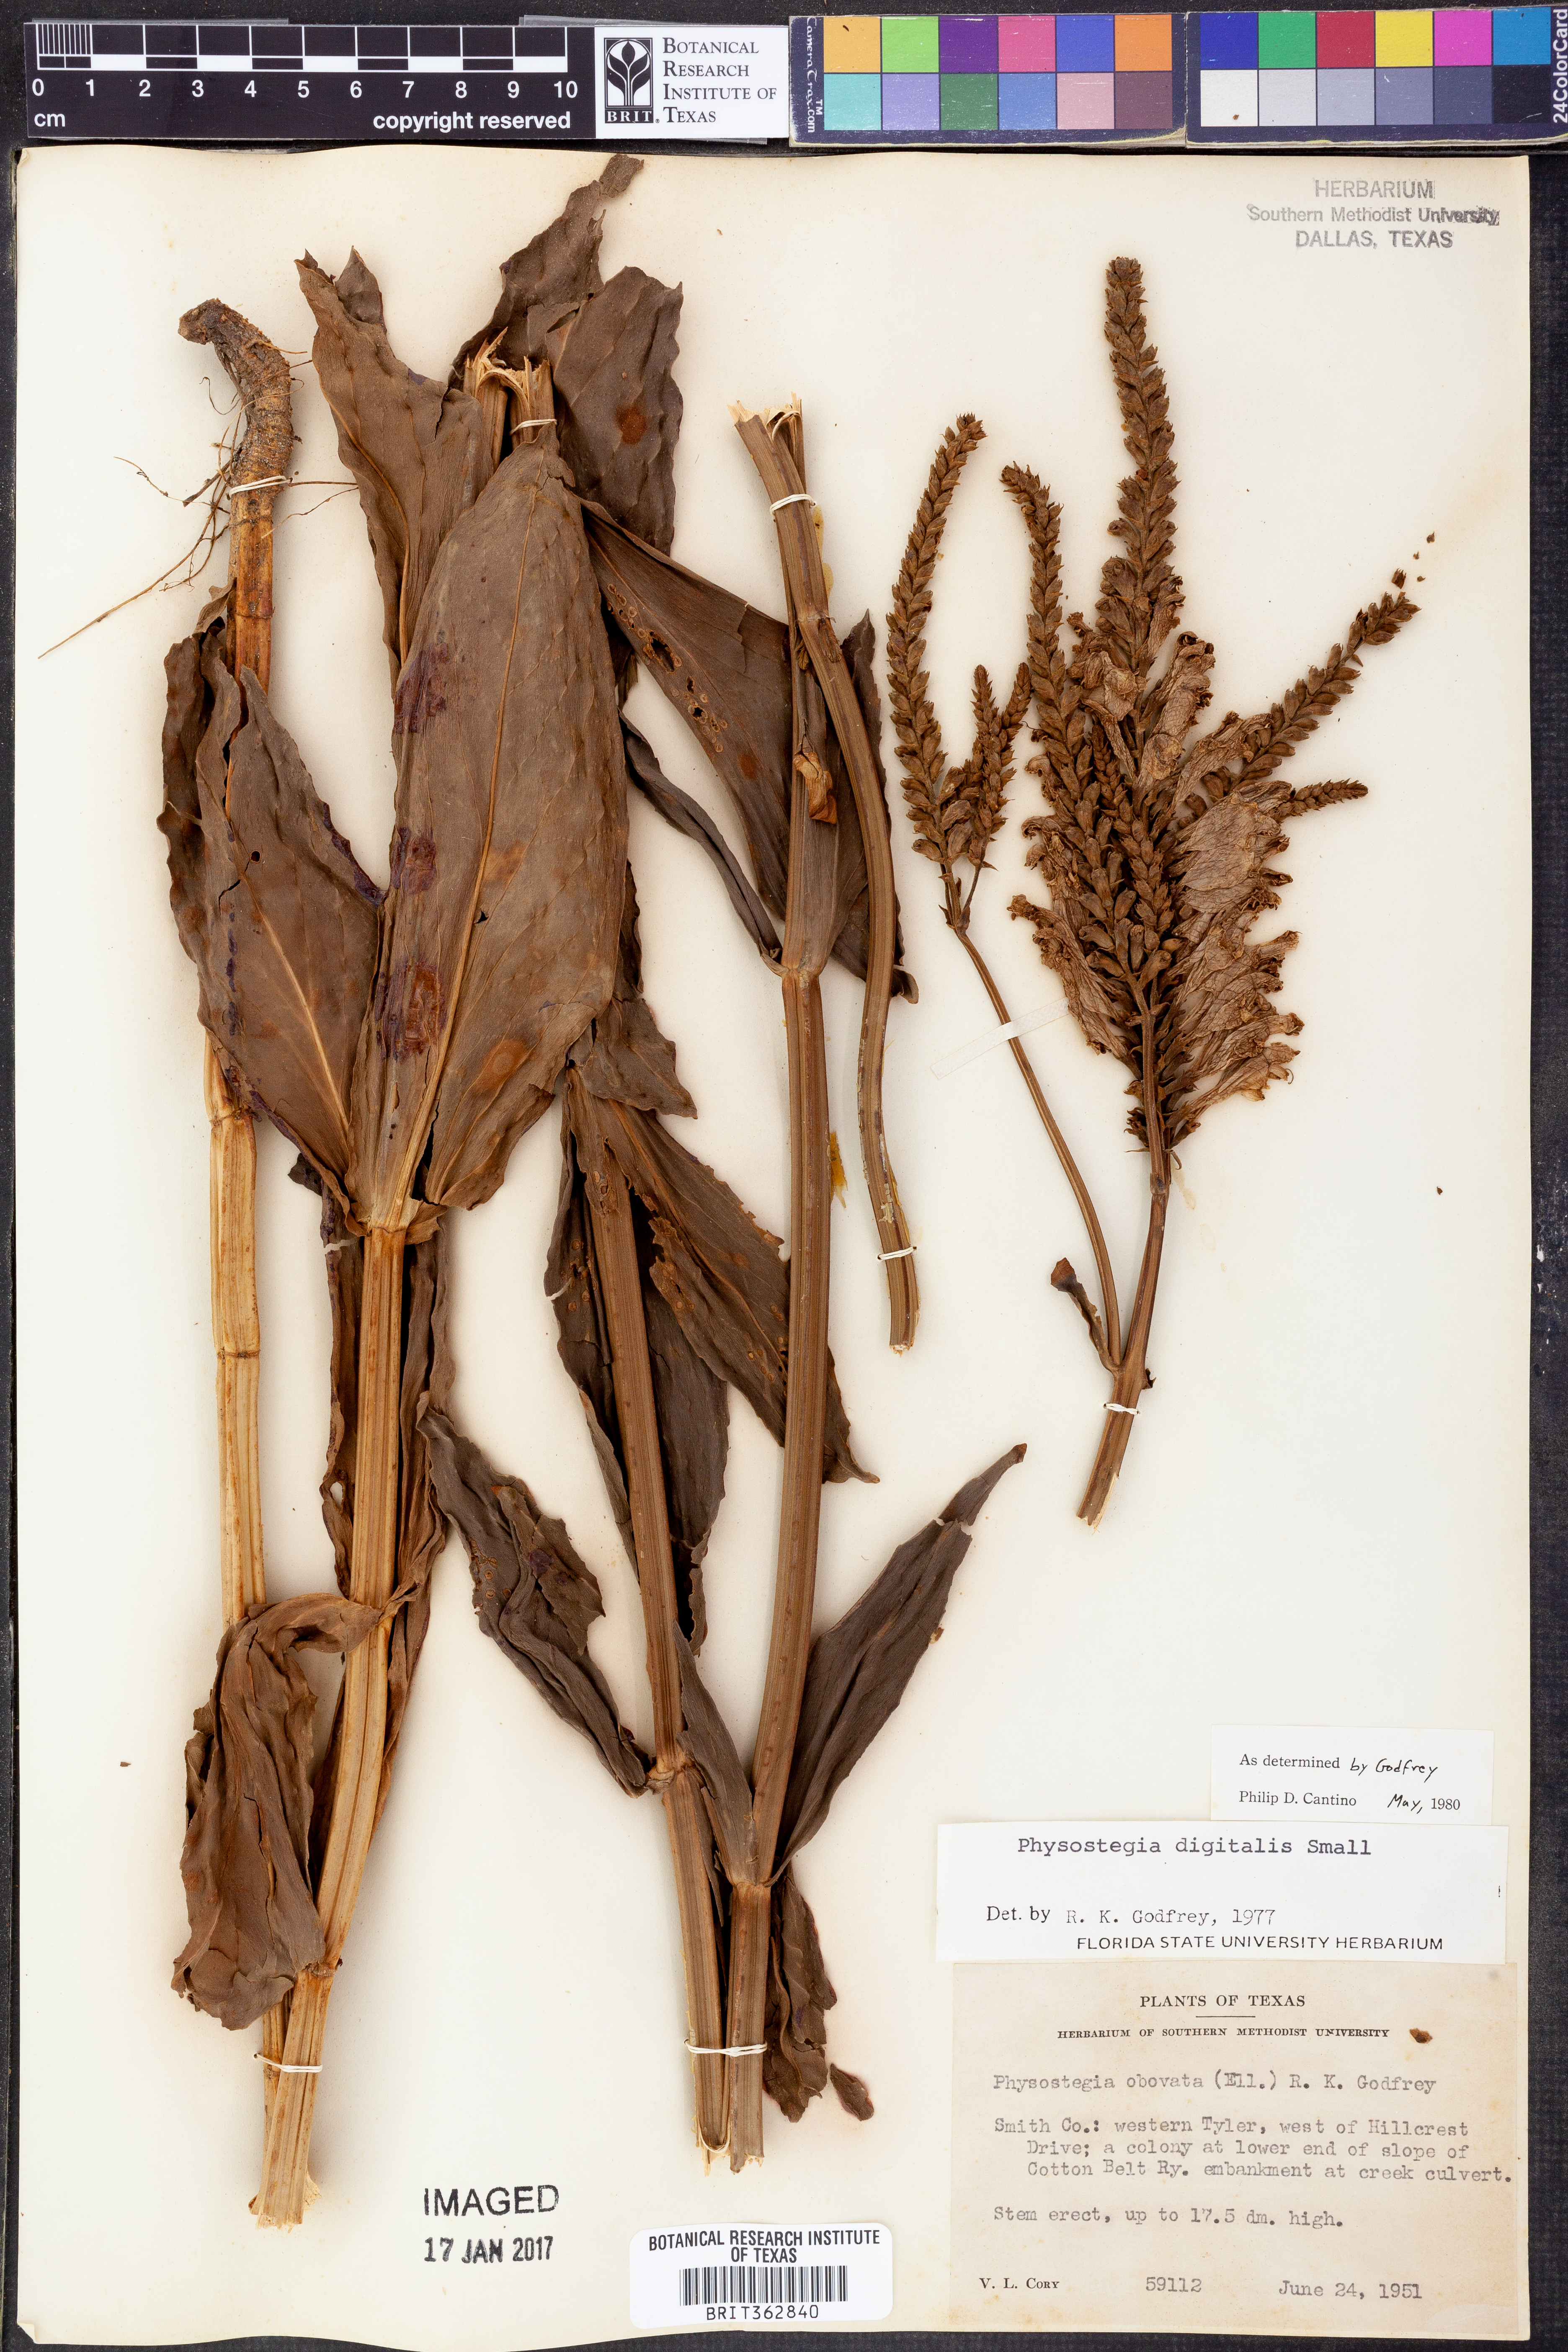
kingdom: Plantae
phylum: Tracheophyta
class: Magnoliopsida
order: Lamiales
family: Lamiaceae
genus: Physostegia
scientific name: Physostegia digitalis
